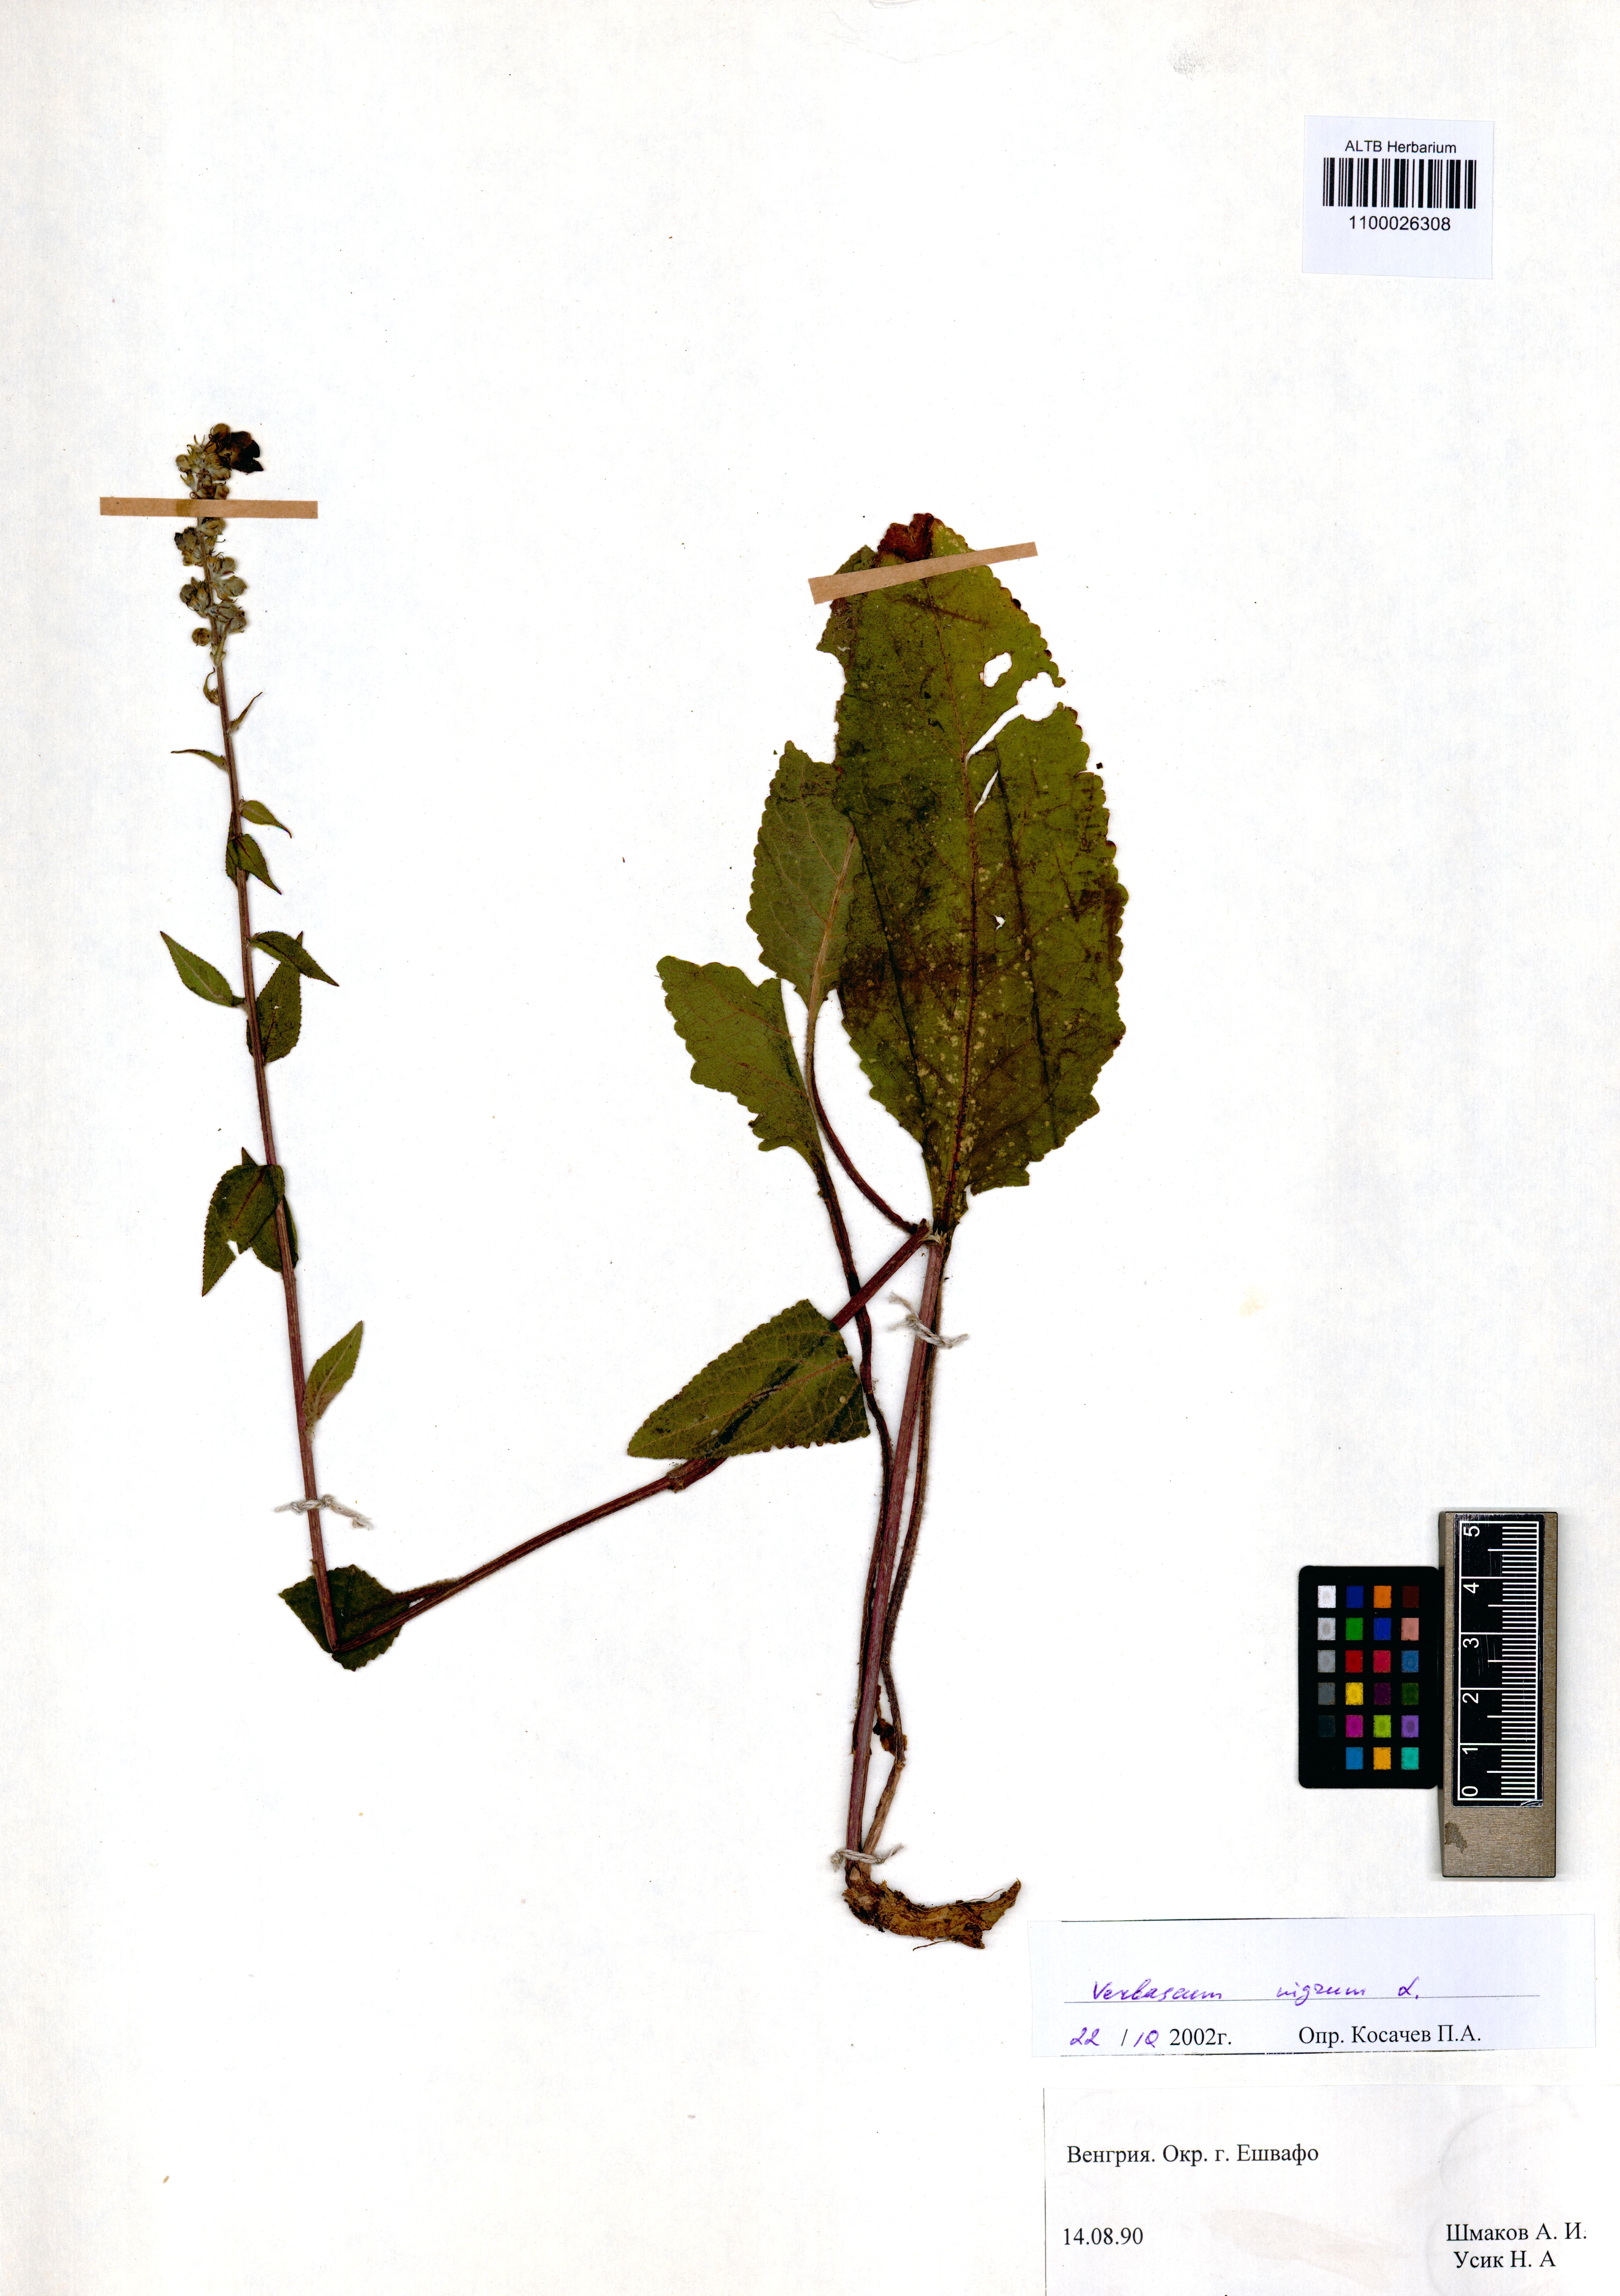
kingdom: Plantae
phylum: Tracheophyta
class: Magnoliopsida
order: Lamiales
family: Scrophulariaceae
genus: Verbascum
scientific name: Verbascum nigrum
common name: Dark mullein
